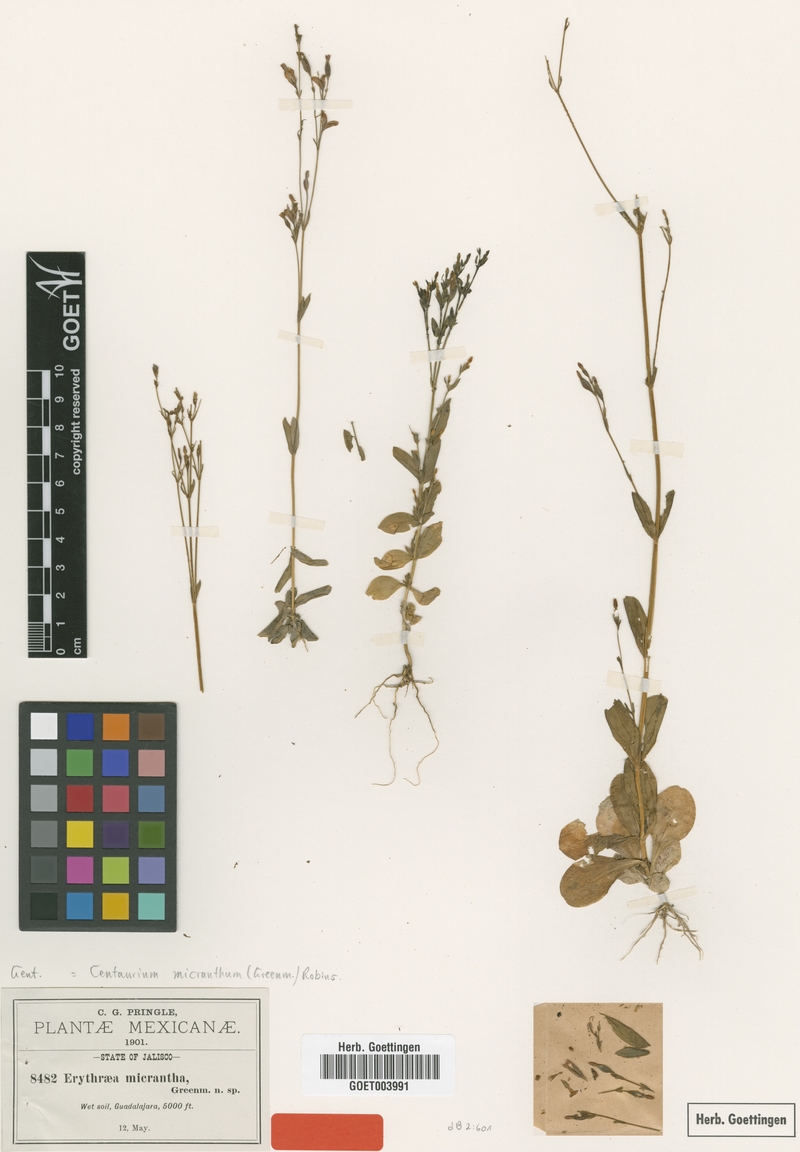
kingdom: Plantae
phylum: Tracheophyta
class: Magnoliopsida
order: Gentianales
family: Gentianaceae
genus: Zeltnera
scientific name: Zeltnera stricta
